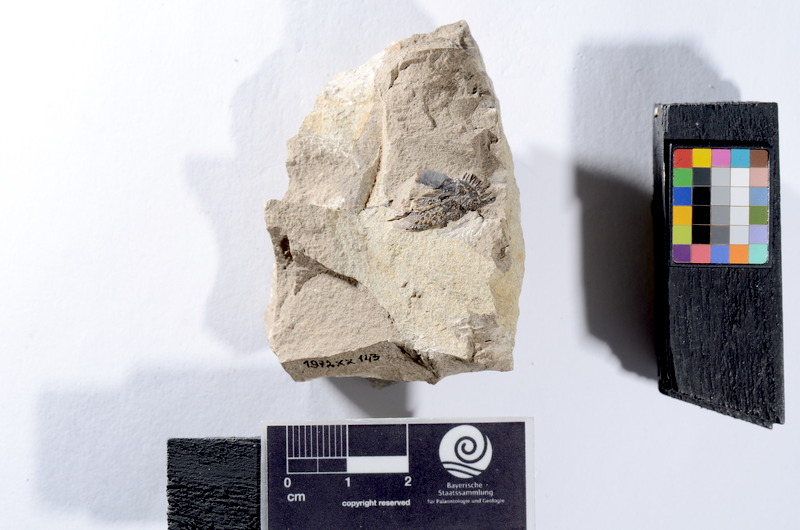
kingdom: Animalia
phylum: Chordata
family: Dapediidae
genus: Dapedium
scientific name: Dapedium punctatum
